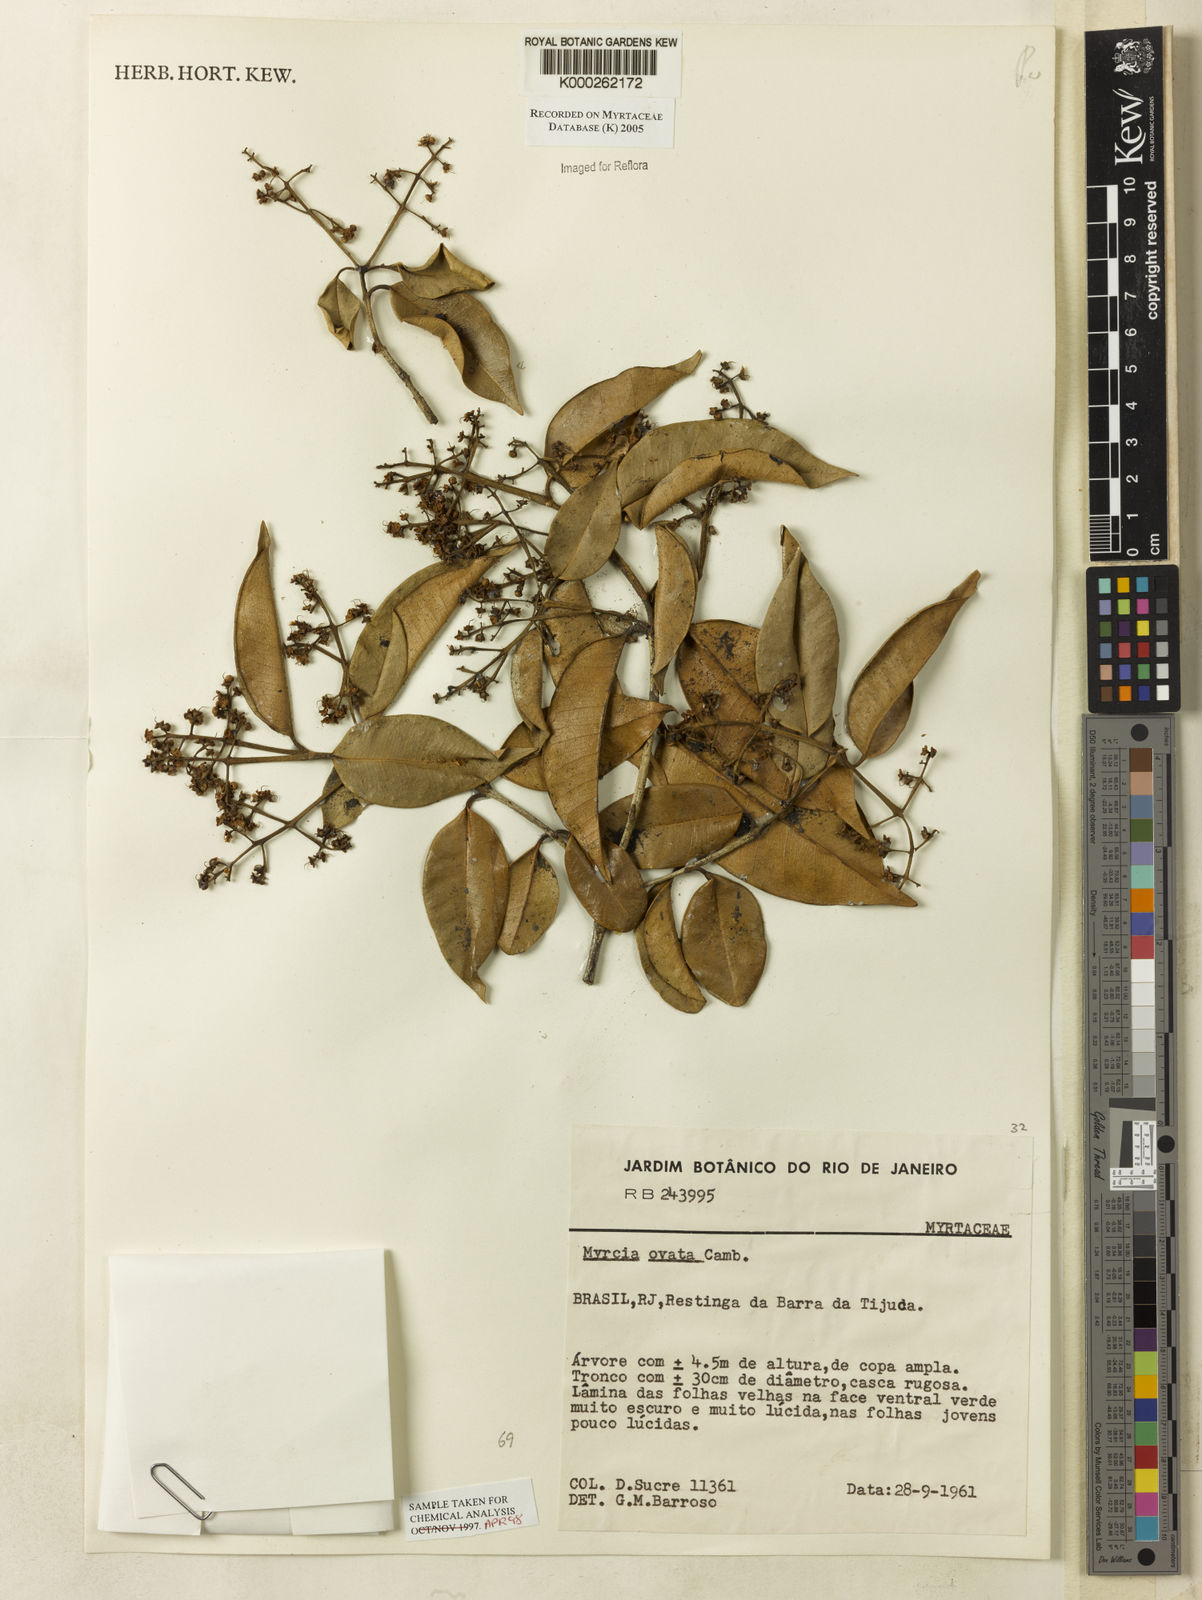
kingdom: Plantae
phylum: Tracheophyta
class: Magnoliopsida
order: Myrtales
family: Myrtaceae
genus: Myrcia
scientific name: Myrcia ovata
